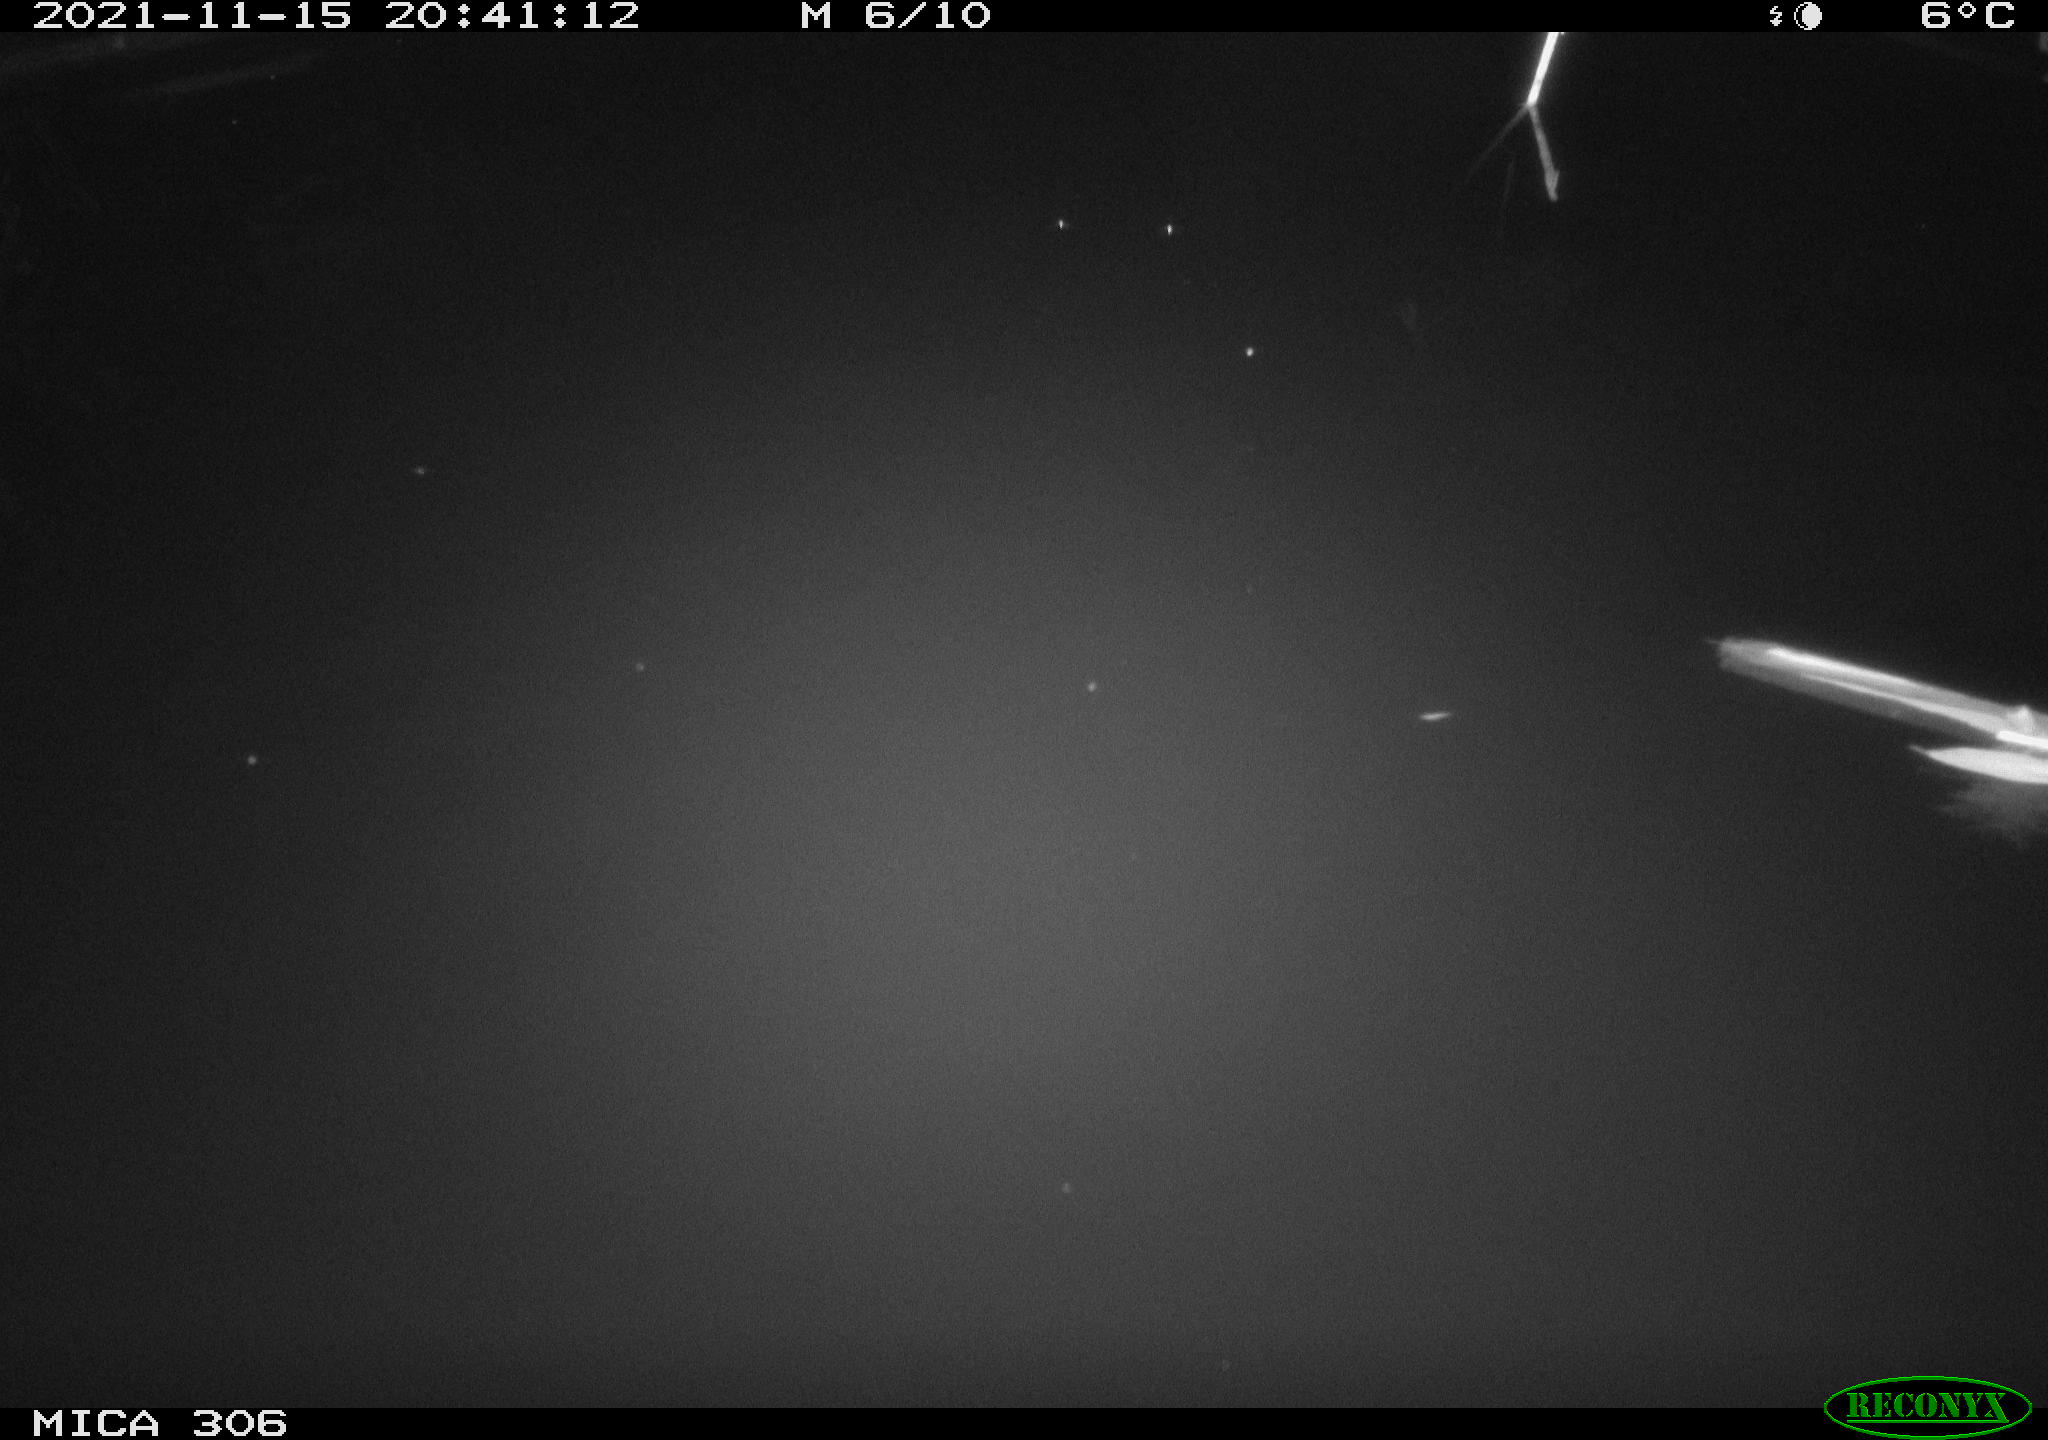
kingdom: Animalia
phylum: Chordata
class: Mammalia
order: Rodentia
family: Muridae
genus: Rattus
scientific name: Rattus norvegicus
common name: Brown rat
